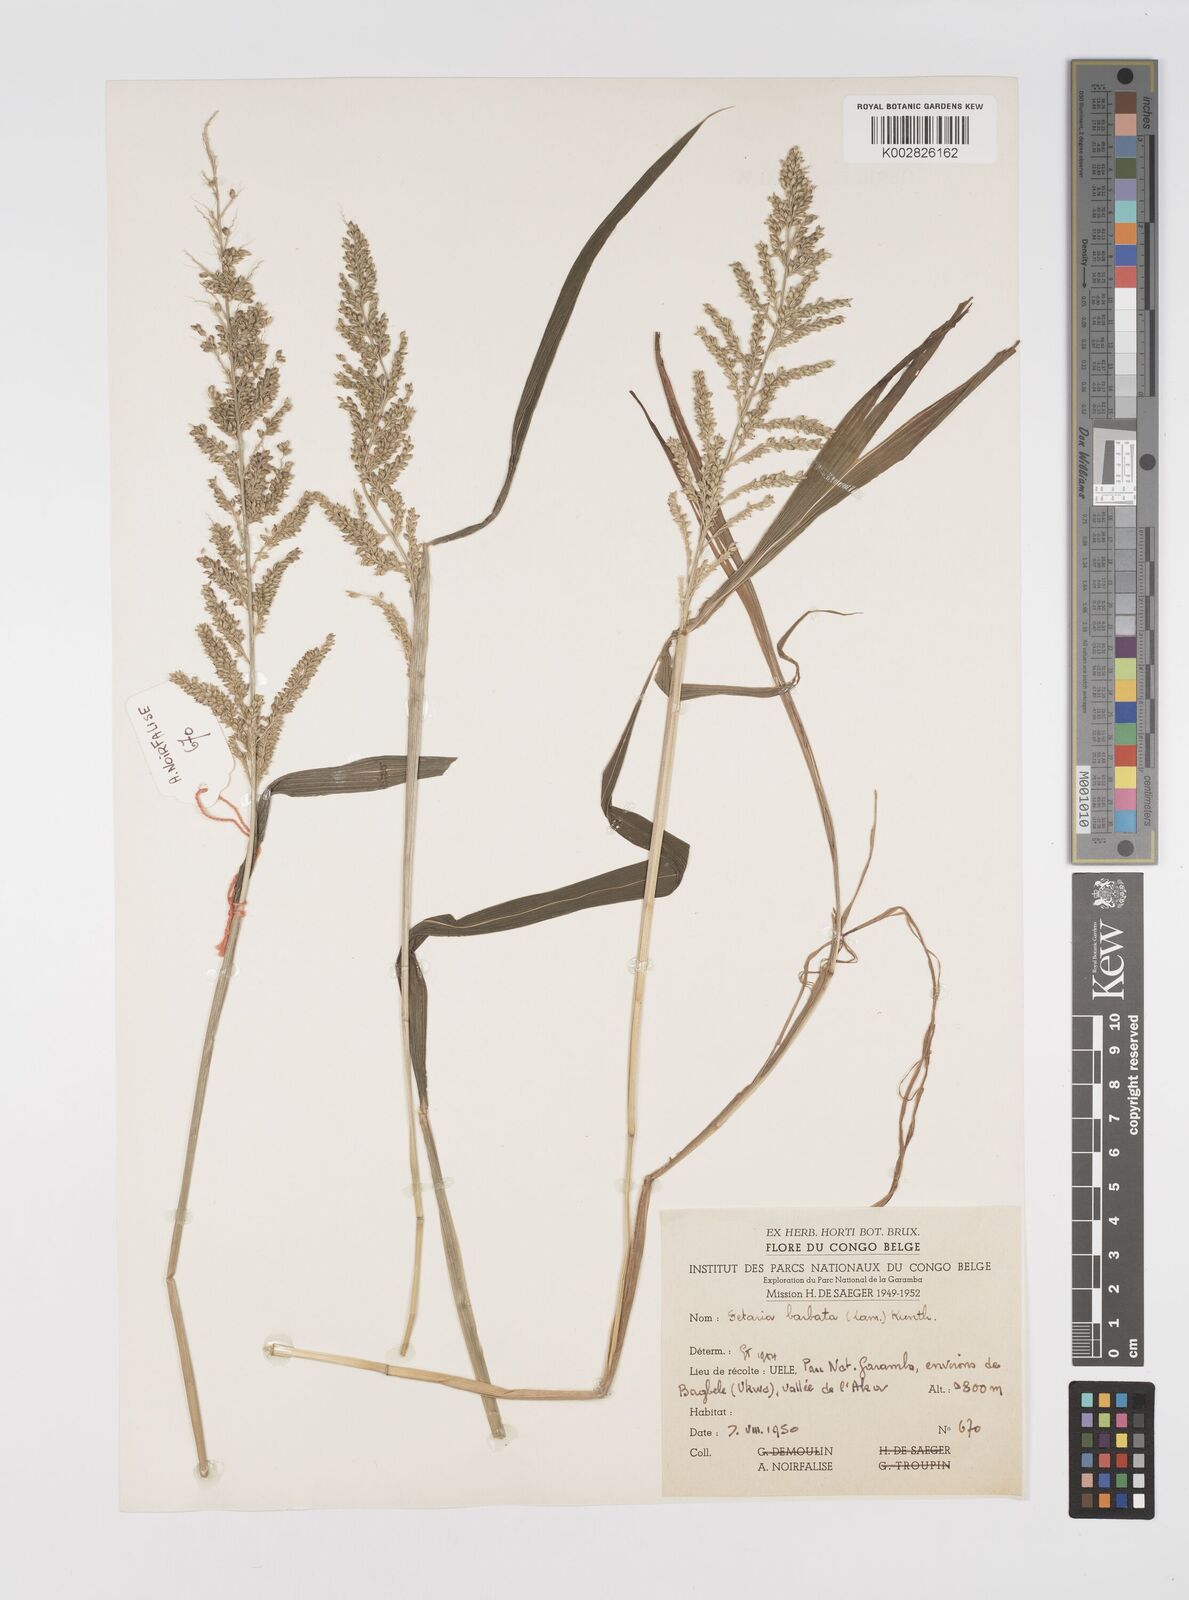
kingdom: Plantae
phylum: Tracheophyta
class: Liliopsida
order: Poales
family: Poaceae
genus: Setaria
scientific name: Setaria barbata
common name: East indian bristlegrass
